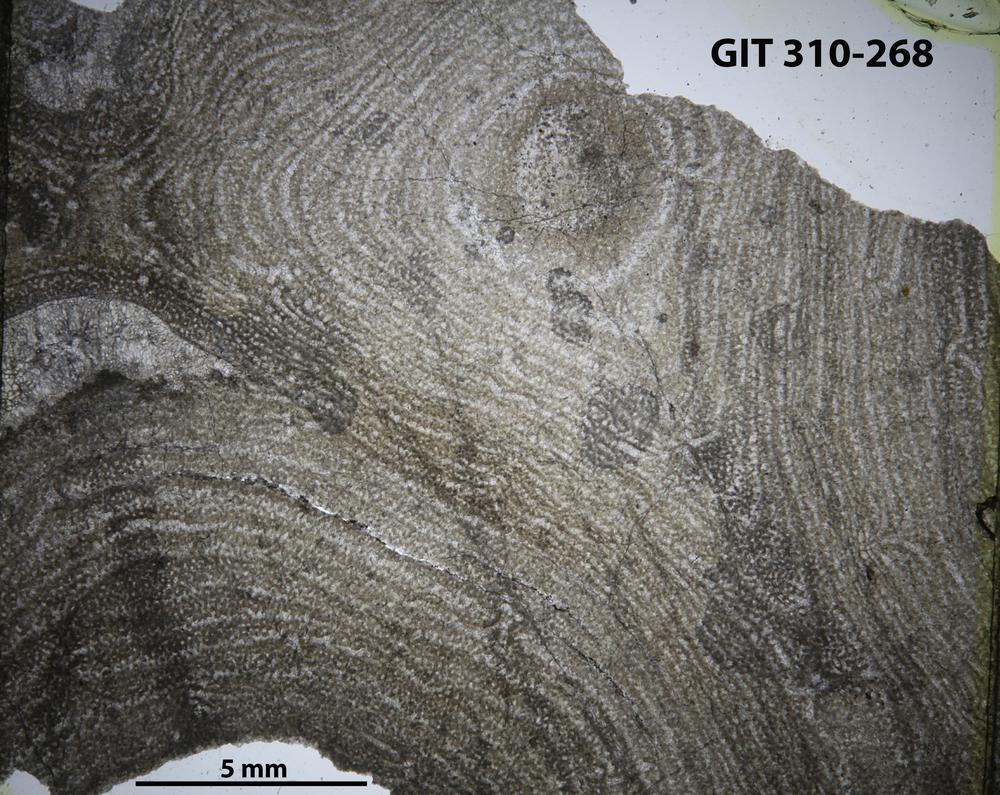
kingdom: Animalia
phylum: Porifera
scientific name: Porifera
